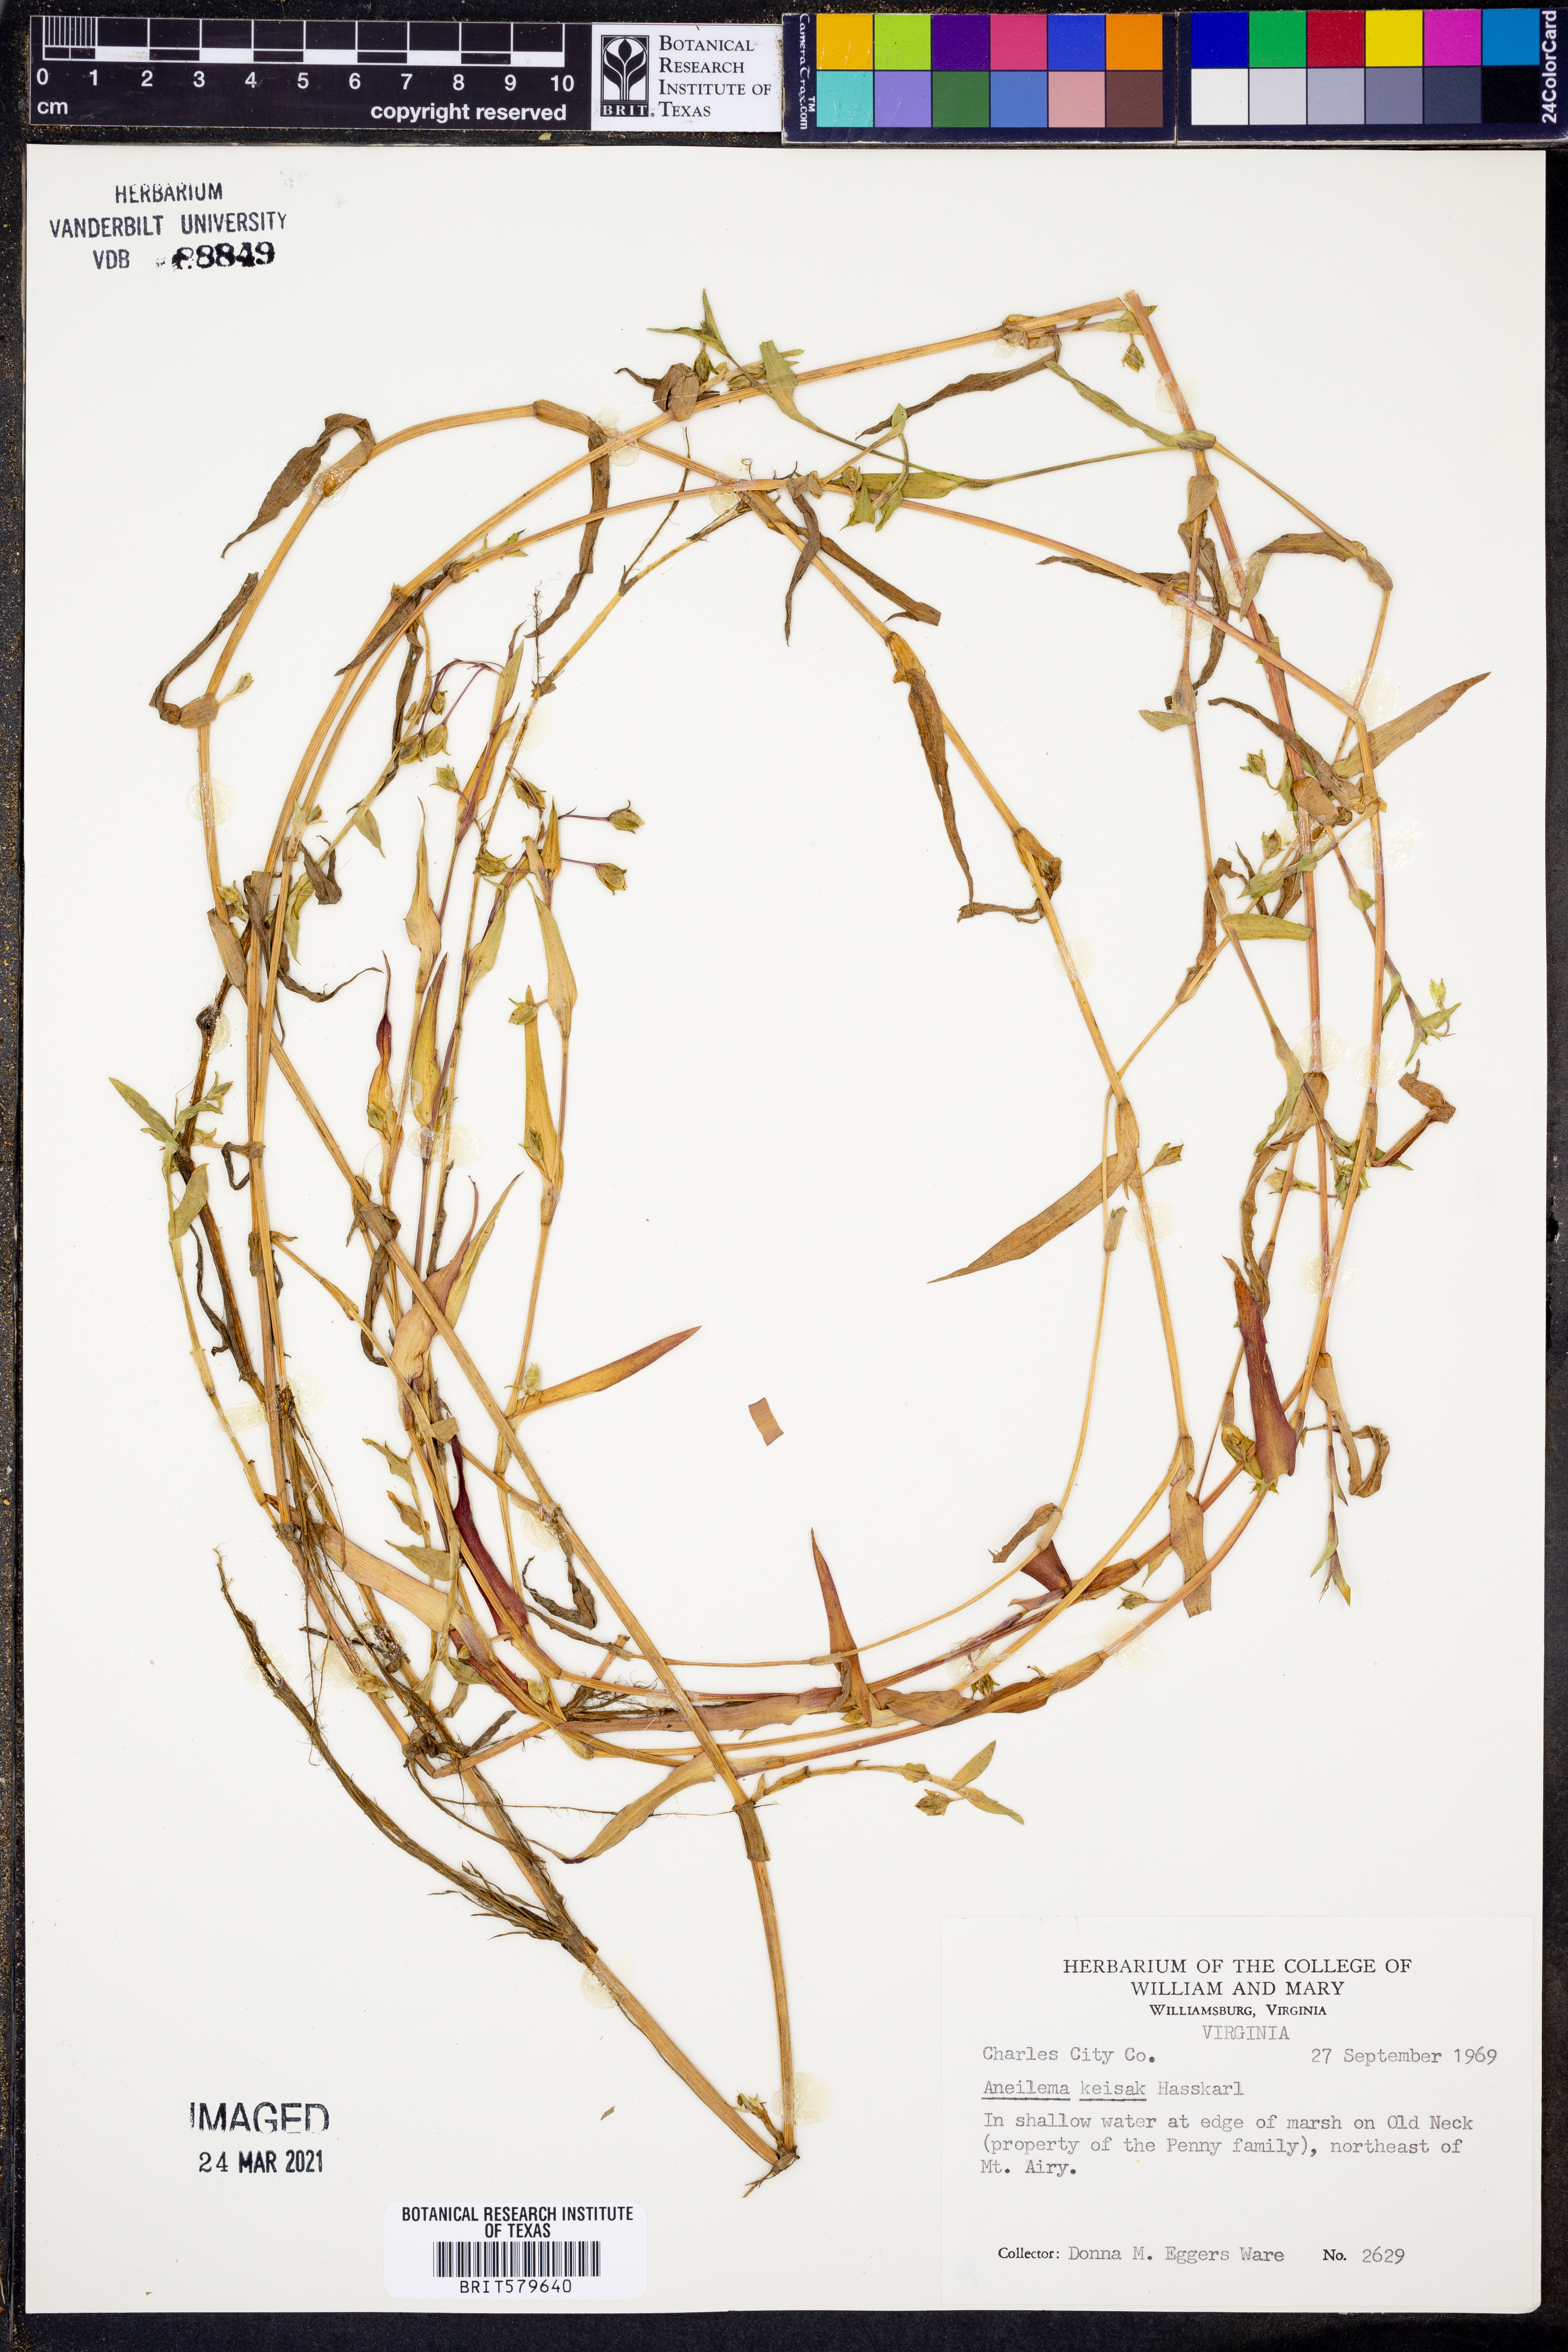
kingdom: Plantae
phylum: Tracheophyta
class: Liliopsida
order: Commelinales
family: Commelinaceae
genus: Murdannia
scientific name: Murdannia keisak
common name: Wartremoving herb
